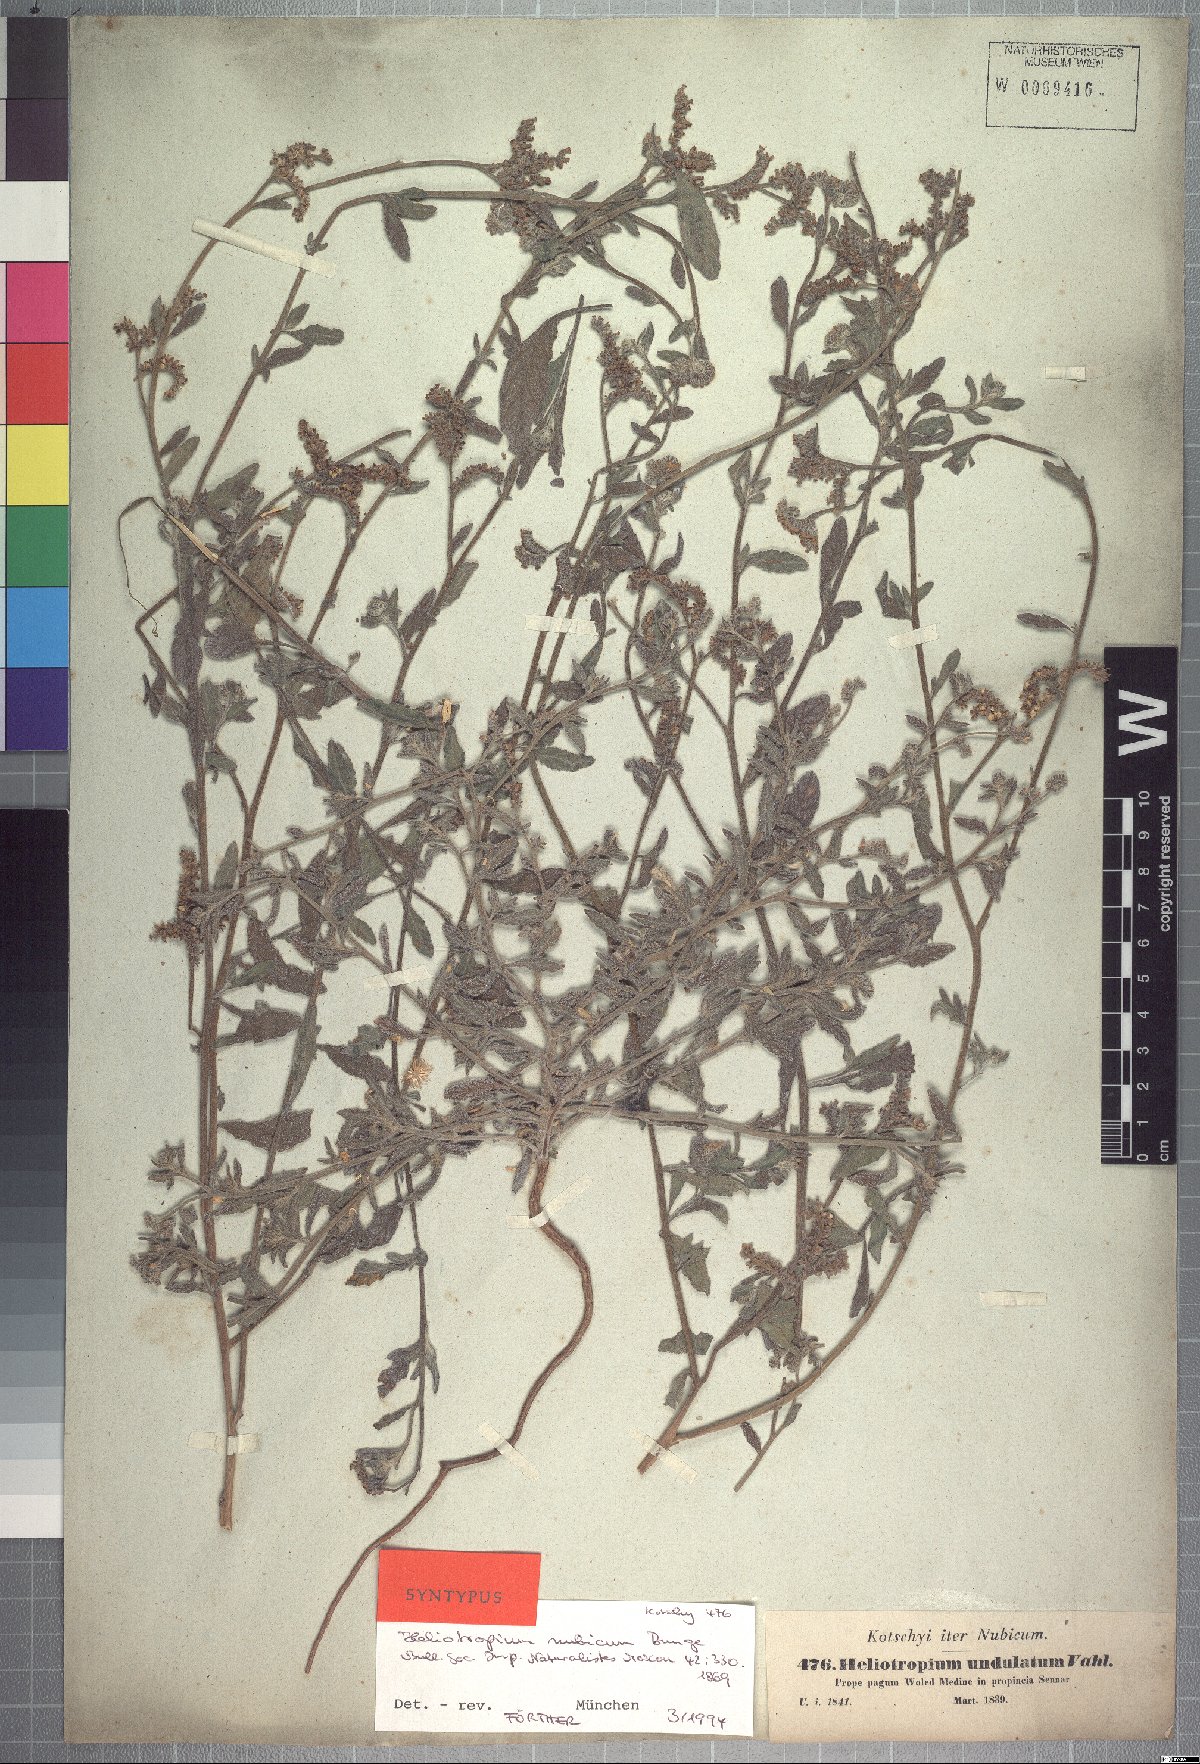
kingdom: Plantae
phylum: Tracheophyta
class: Magnoliopsida
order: Boraginales
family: Heliotropiaceae
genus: Heliotropium
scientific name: Heliotropium bacciferum
